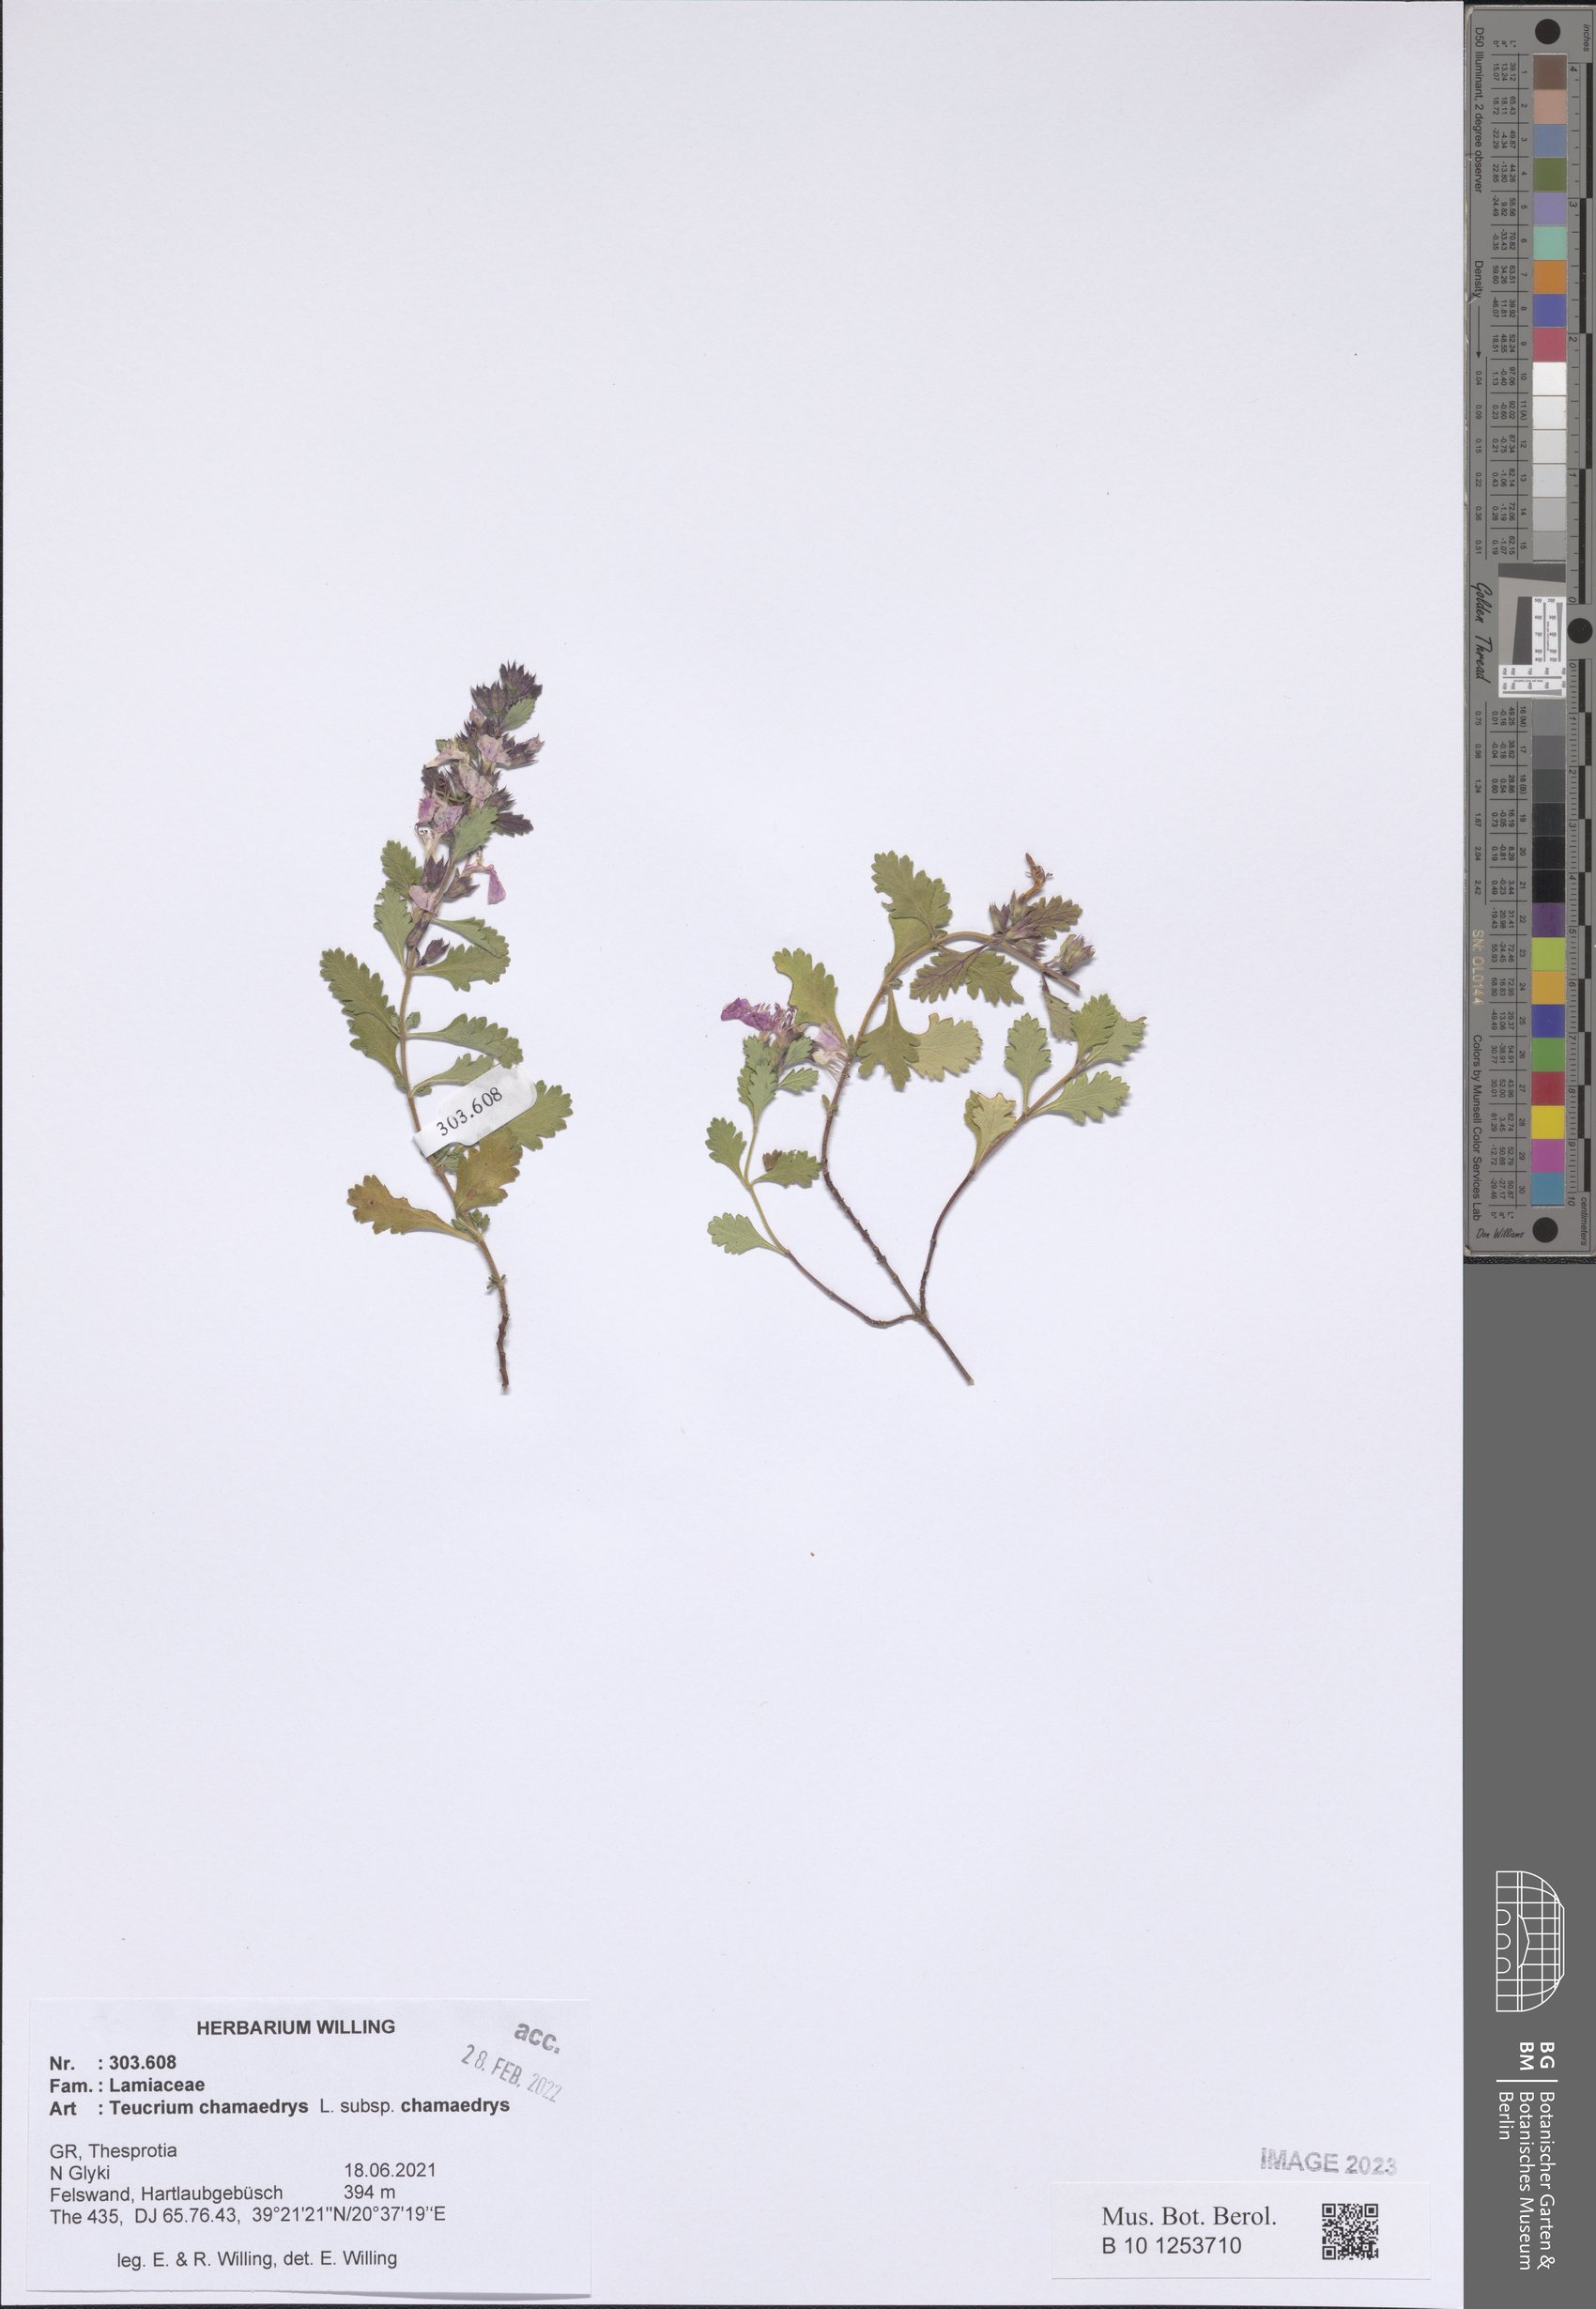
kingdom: Plantae
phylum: Tracheophyta
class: Magnoliopsida
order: Lamiales
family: Lamiaceae
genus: Teucrium
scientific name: Teucrium chamaedrys
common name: Wall germander
